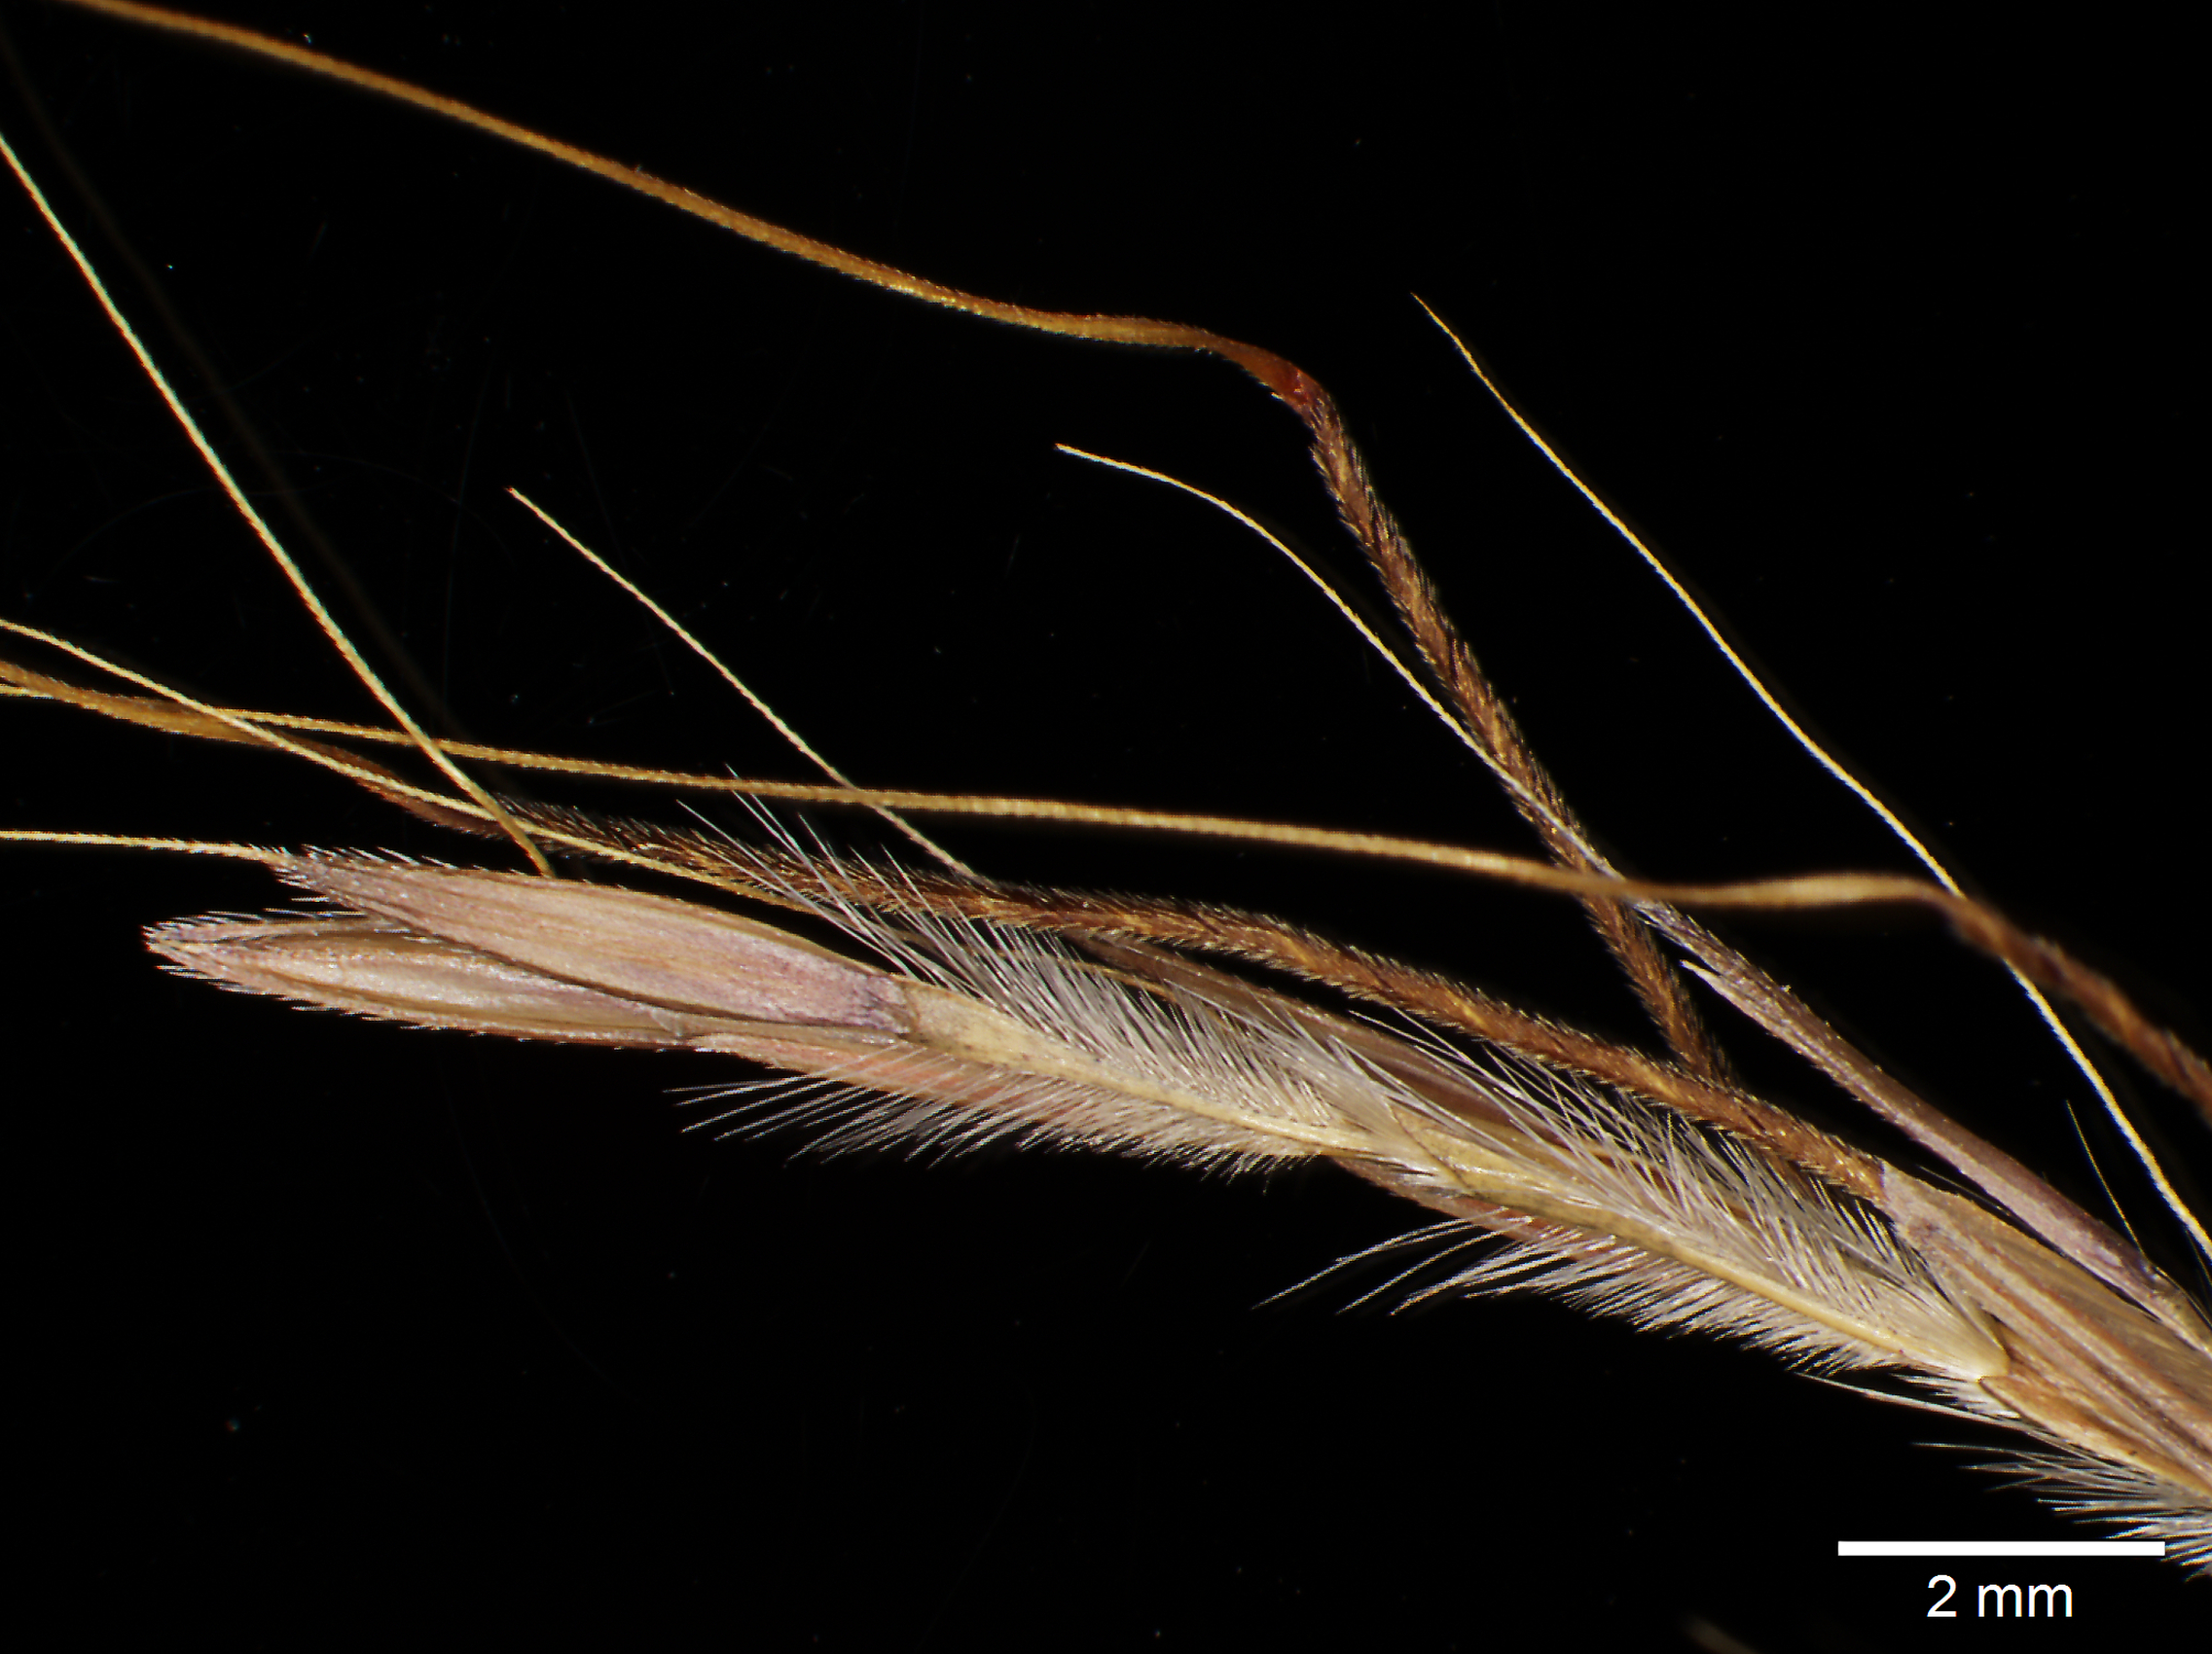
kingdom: Plantae
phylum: Tracheophyta
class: Liliopsida
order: Poales
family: Poaceae
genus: Andropogon
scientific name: Andropogon angustatus
